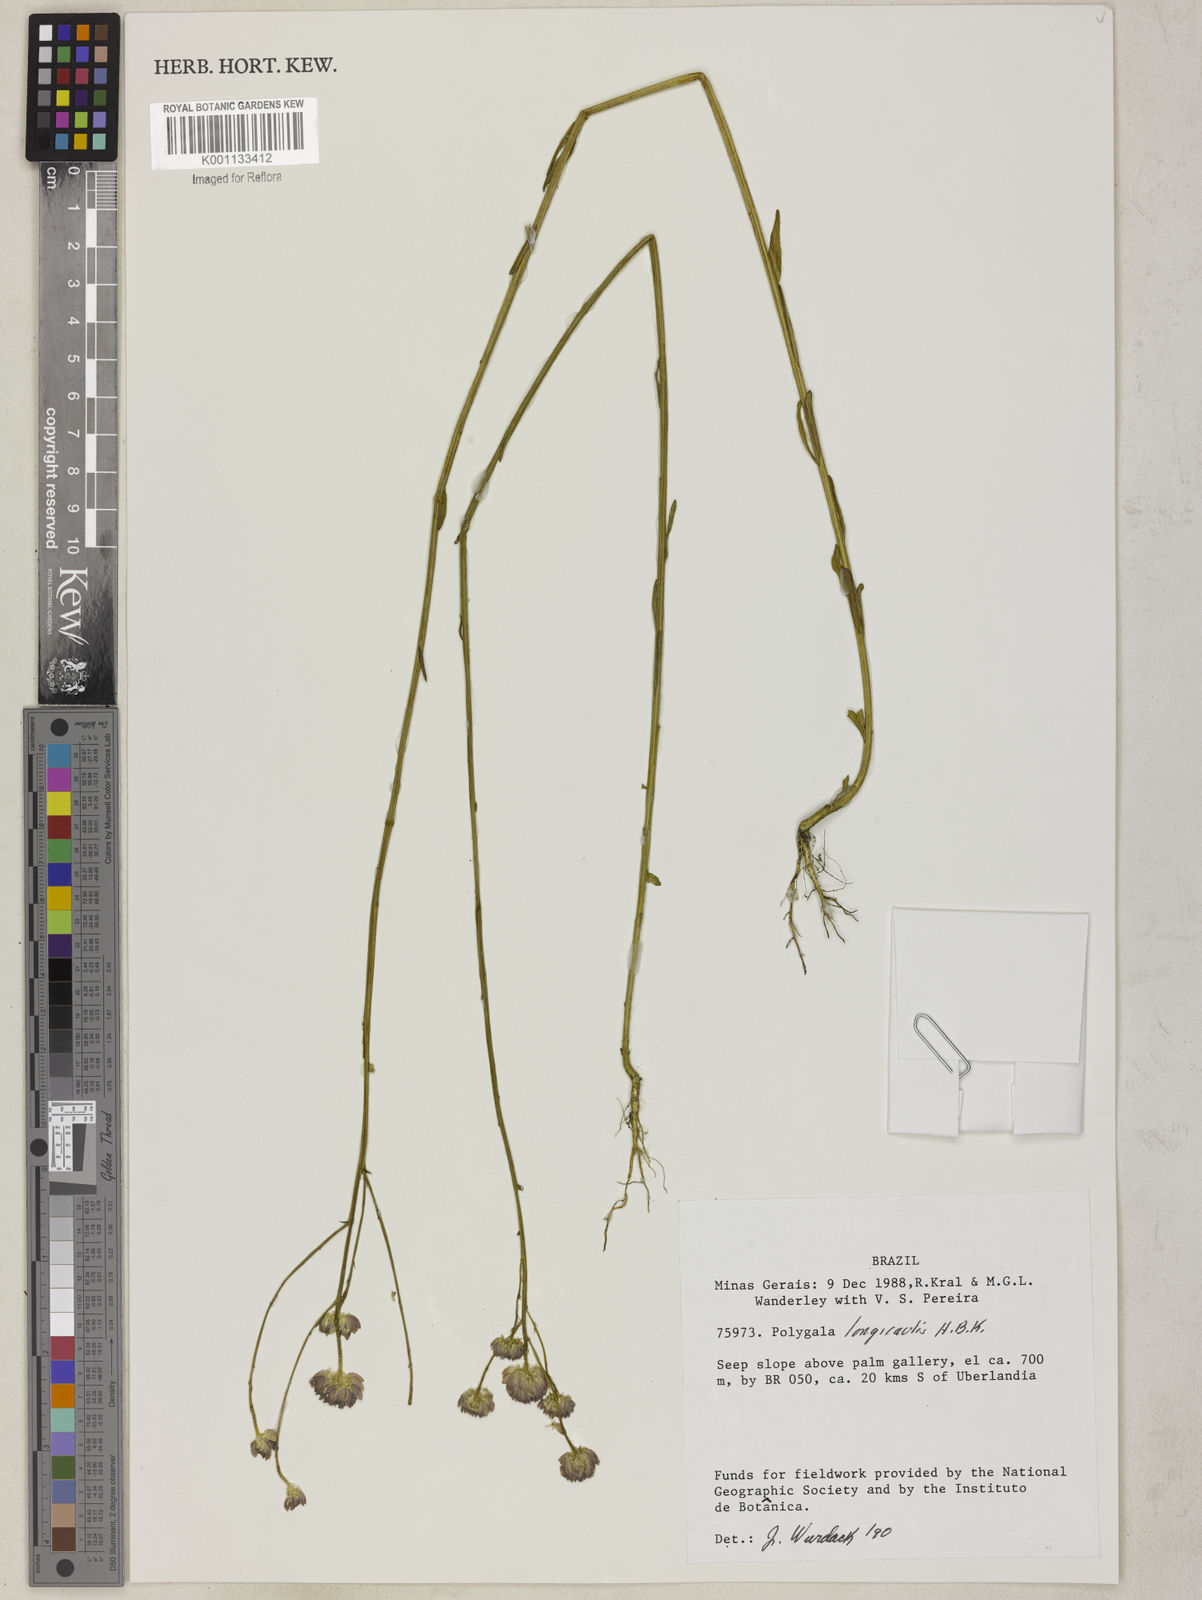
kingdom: Plantae
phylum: Tracheophyta
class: Magnoliopsida
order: Fabales
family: Polygalaceae
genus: Polygala
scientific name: Polygala longicaulis
